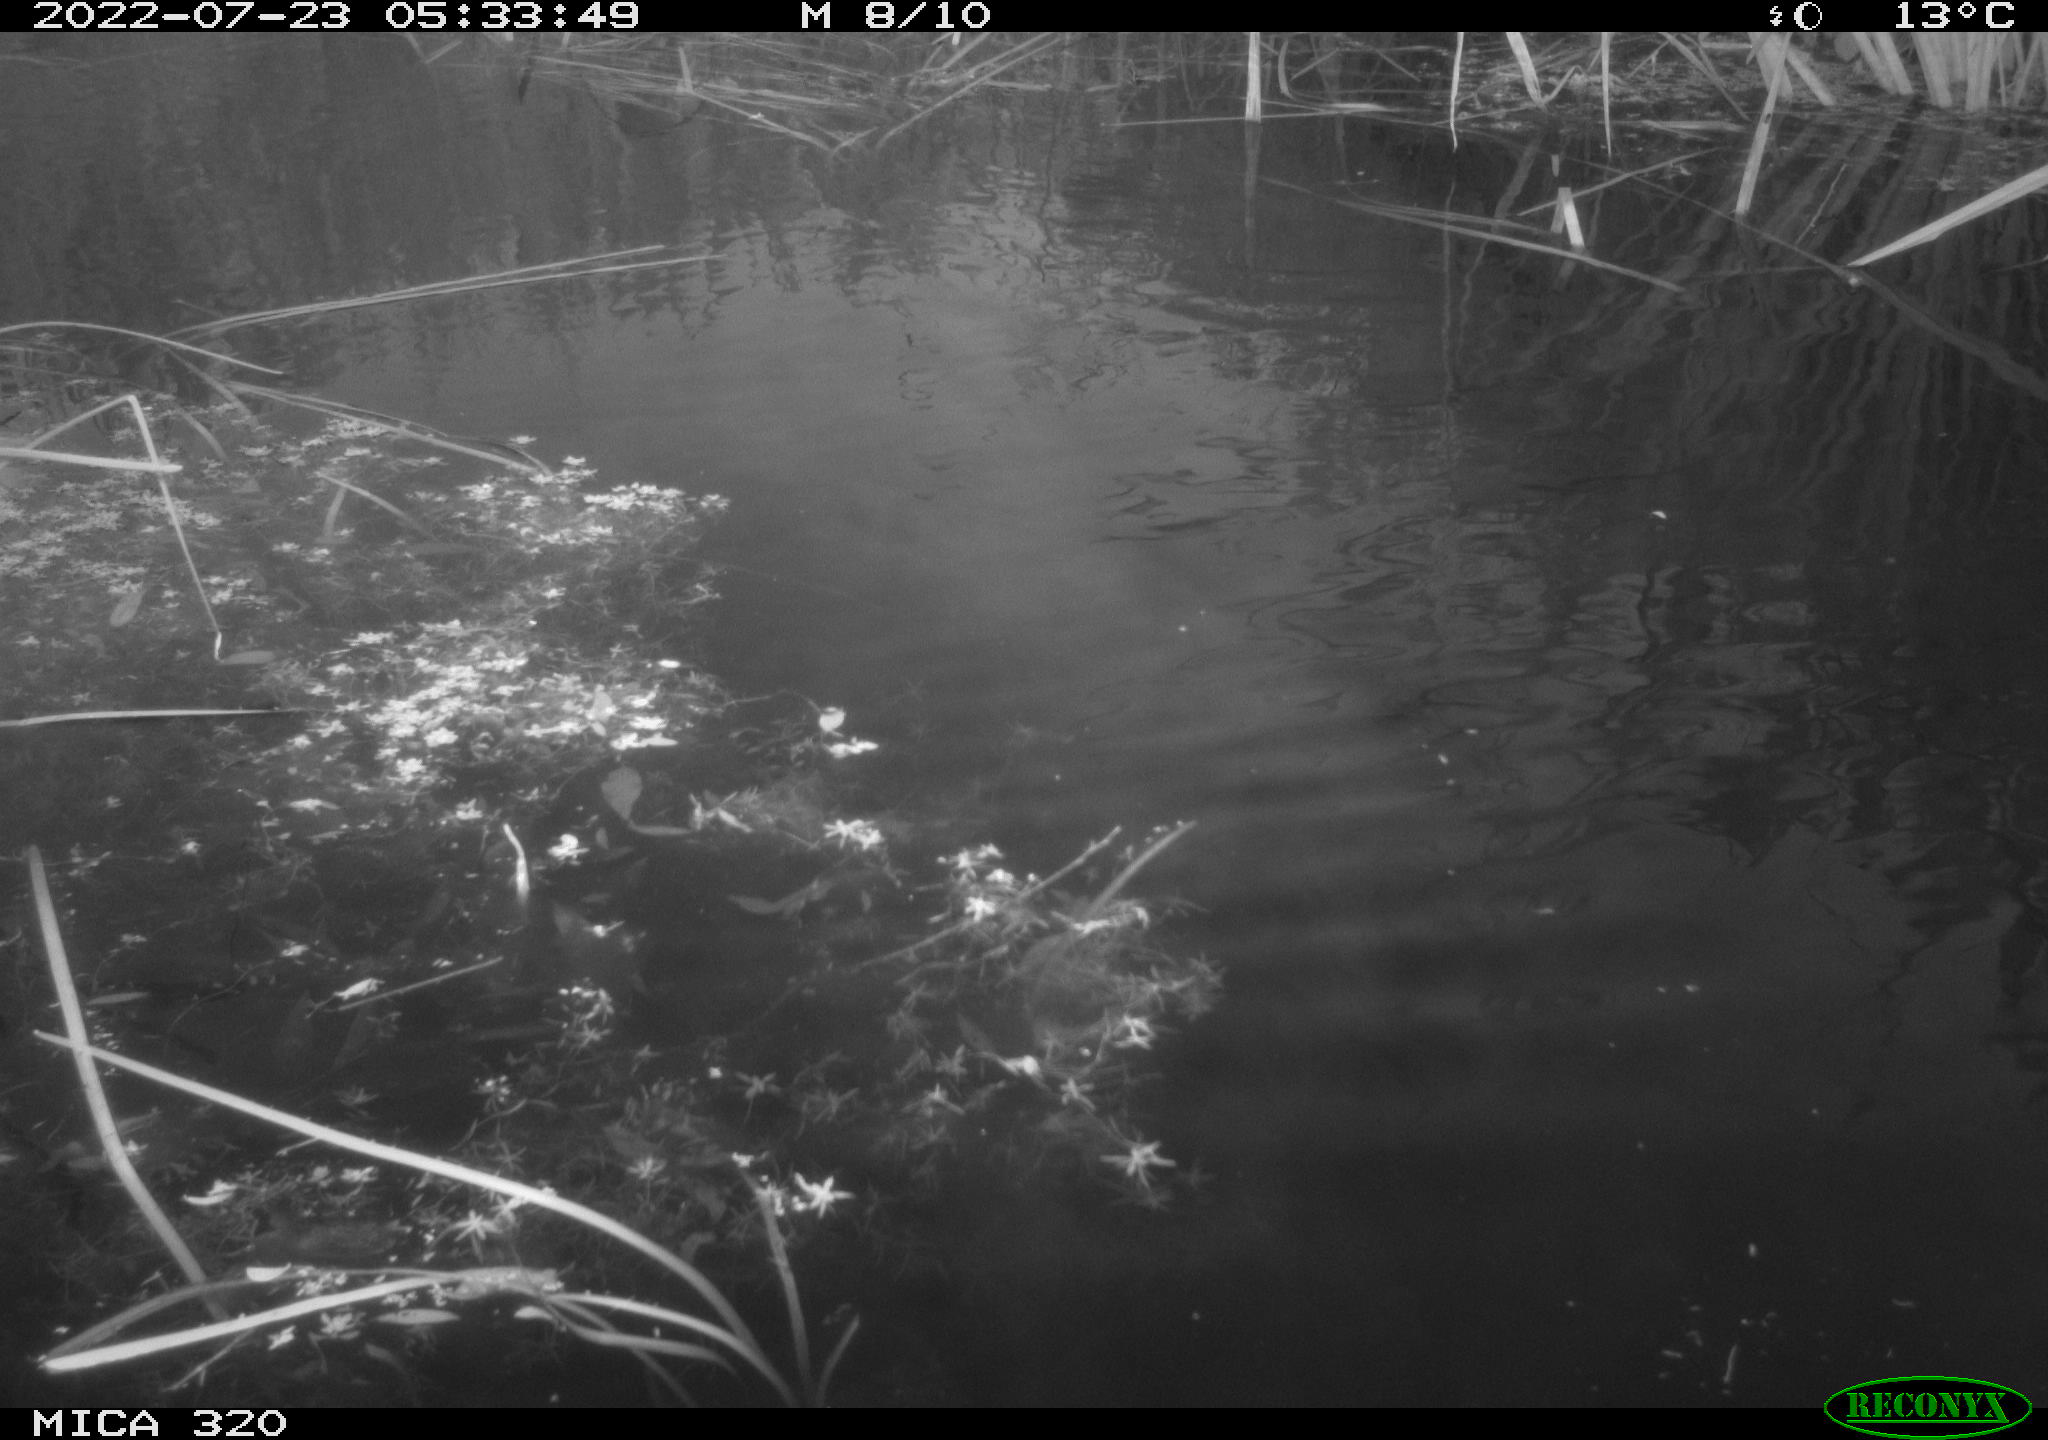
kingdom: Animalia
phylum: Chordata
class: Aves
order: Anseriformes
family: Anatidae
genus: Anas
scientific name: Anas platyrhynchos
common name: Mallard
